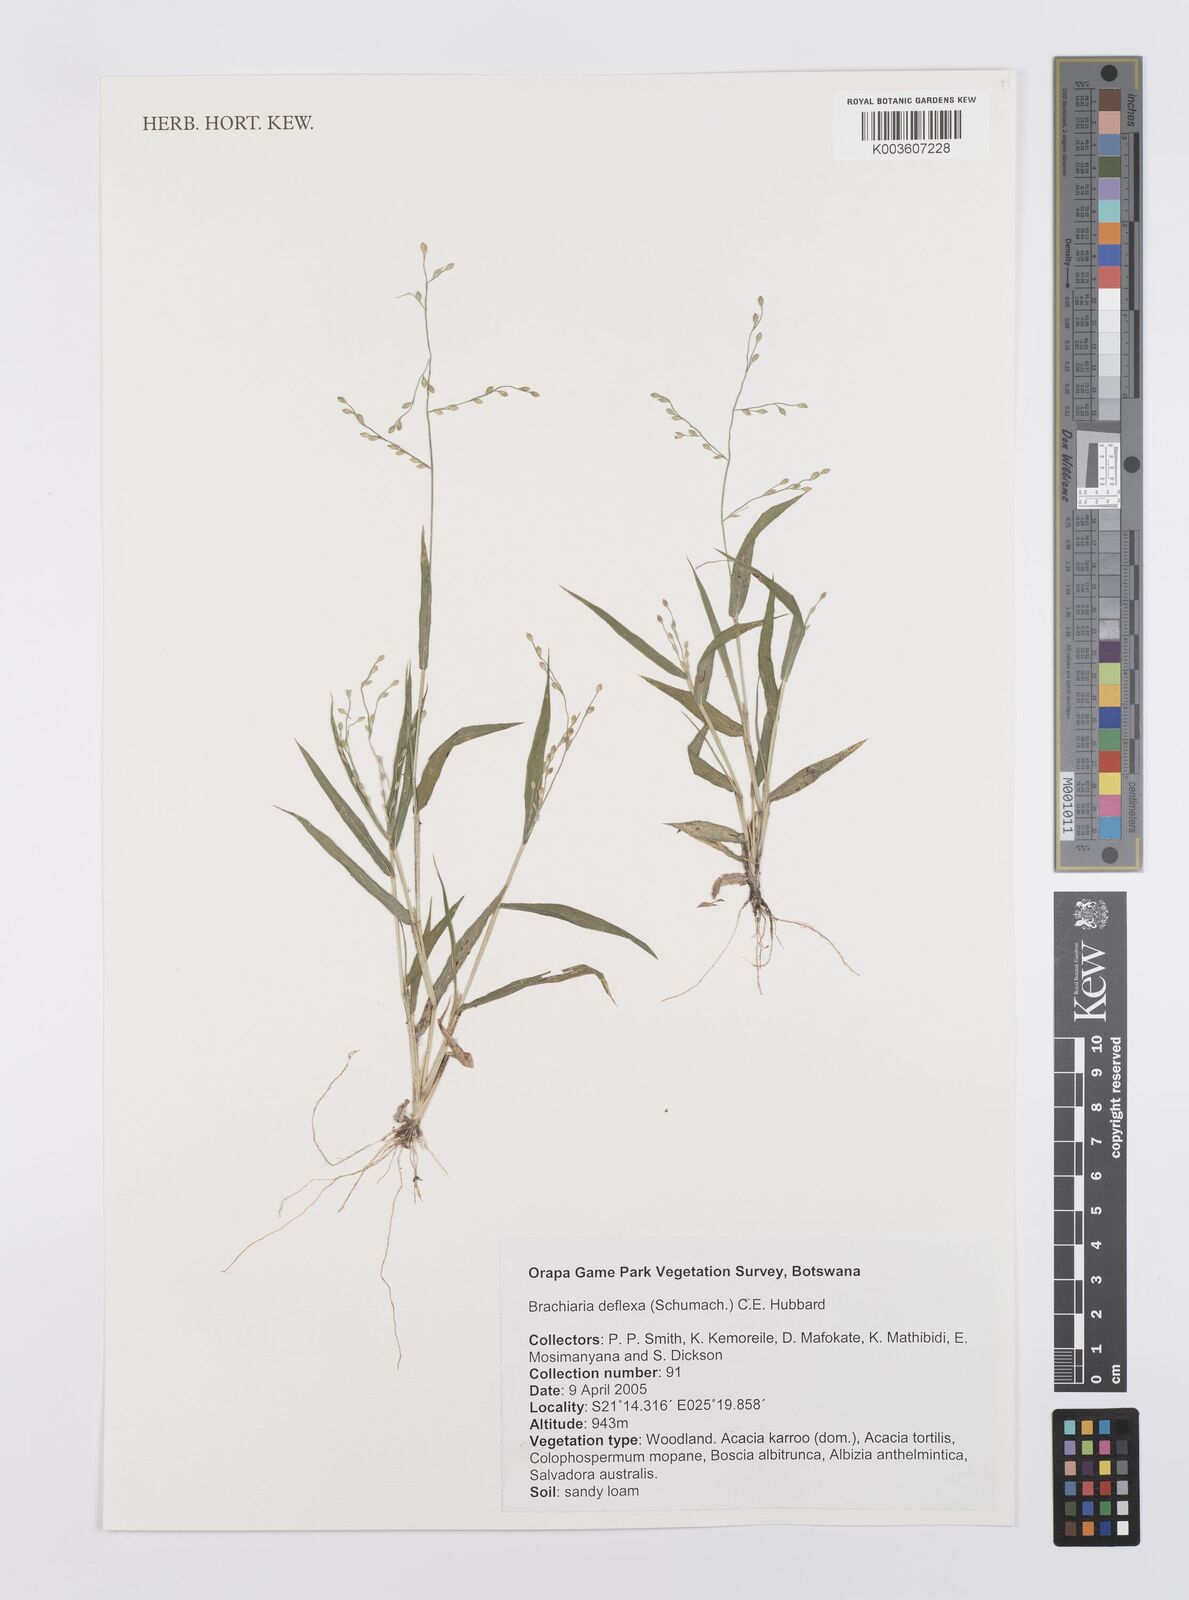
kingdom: Plantae
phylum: Tracheophyta
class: Liliopsida
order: Poales
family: Poaceae
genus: Urochloa
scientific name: Urochloa deflexa
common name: Guinea millet
